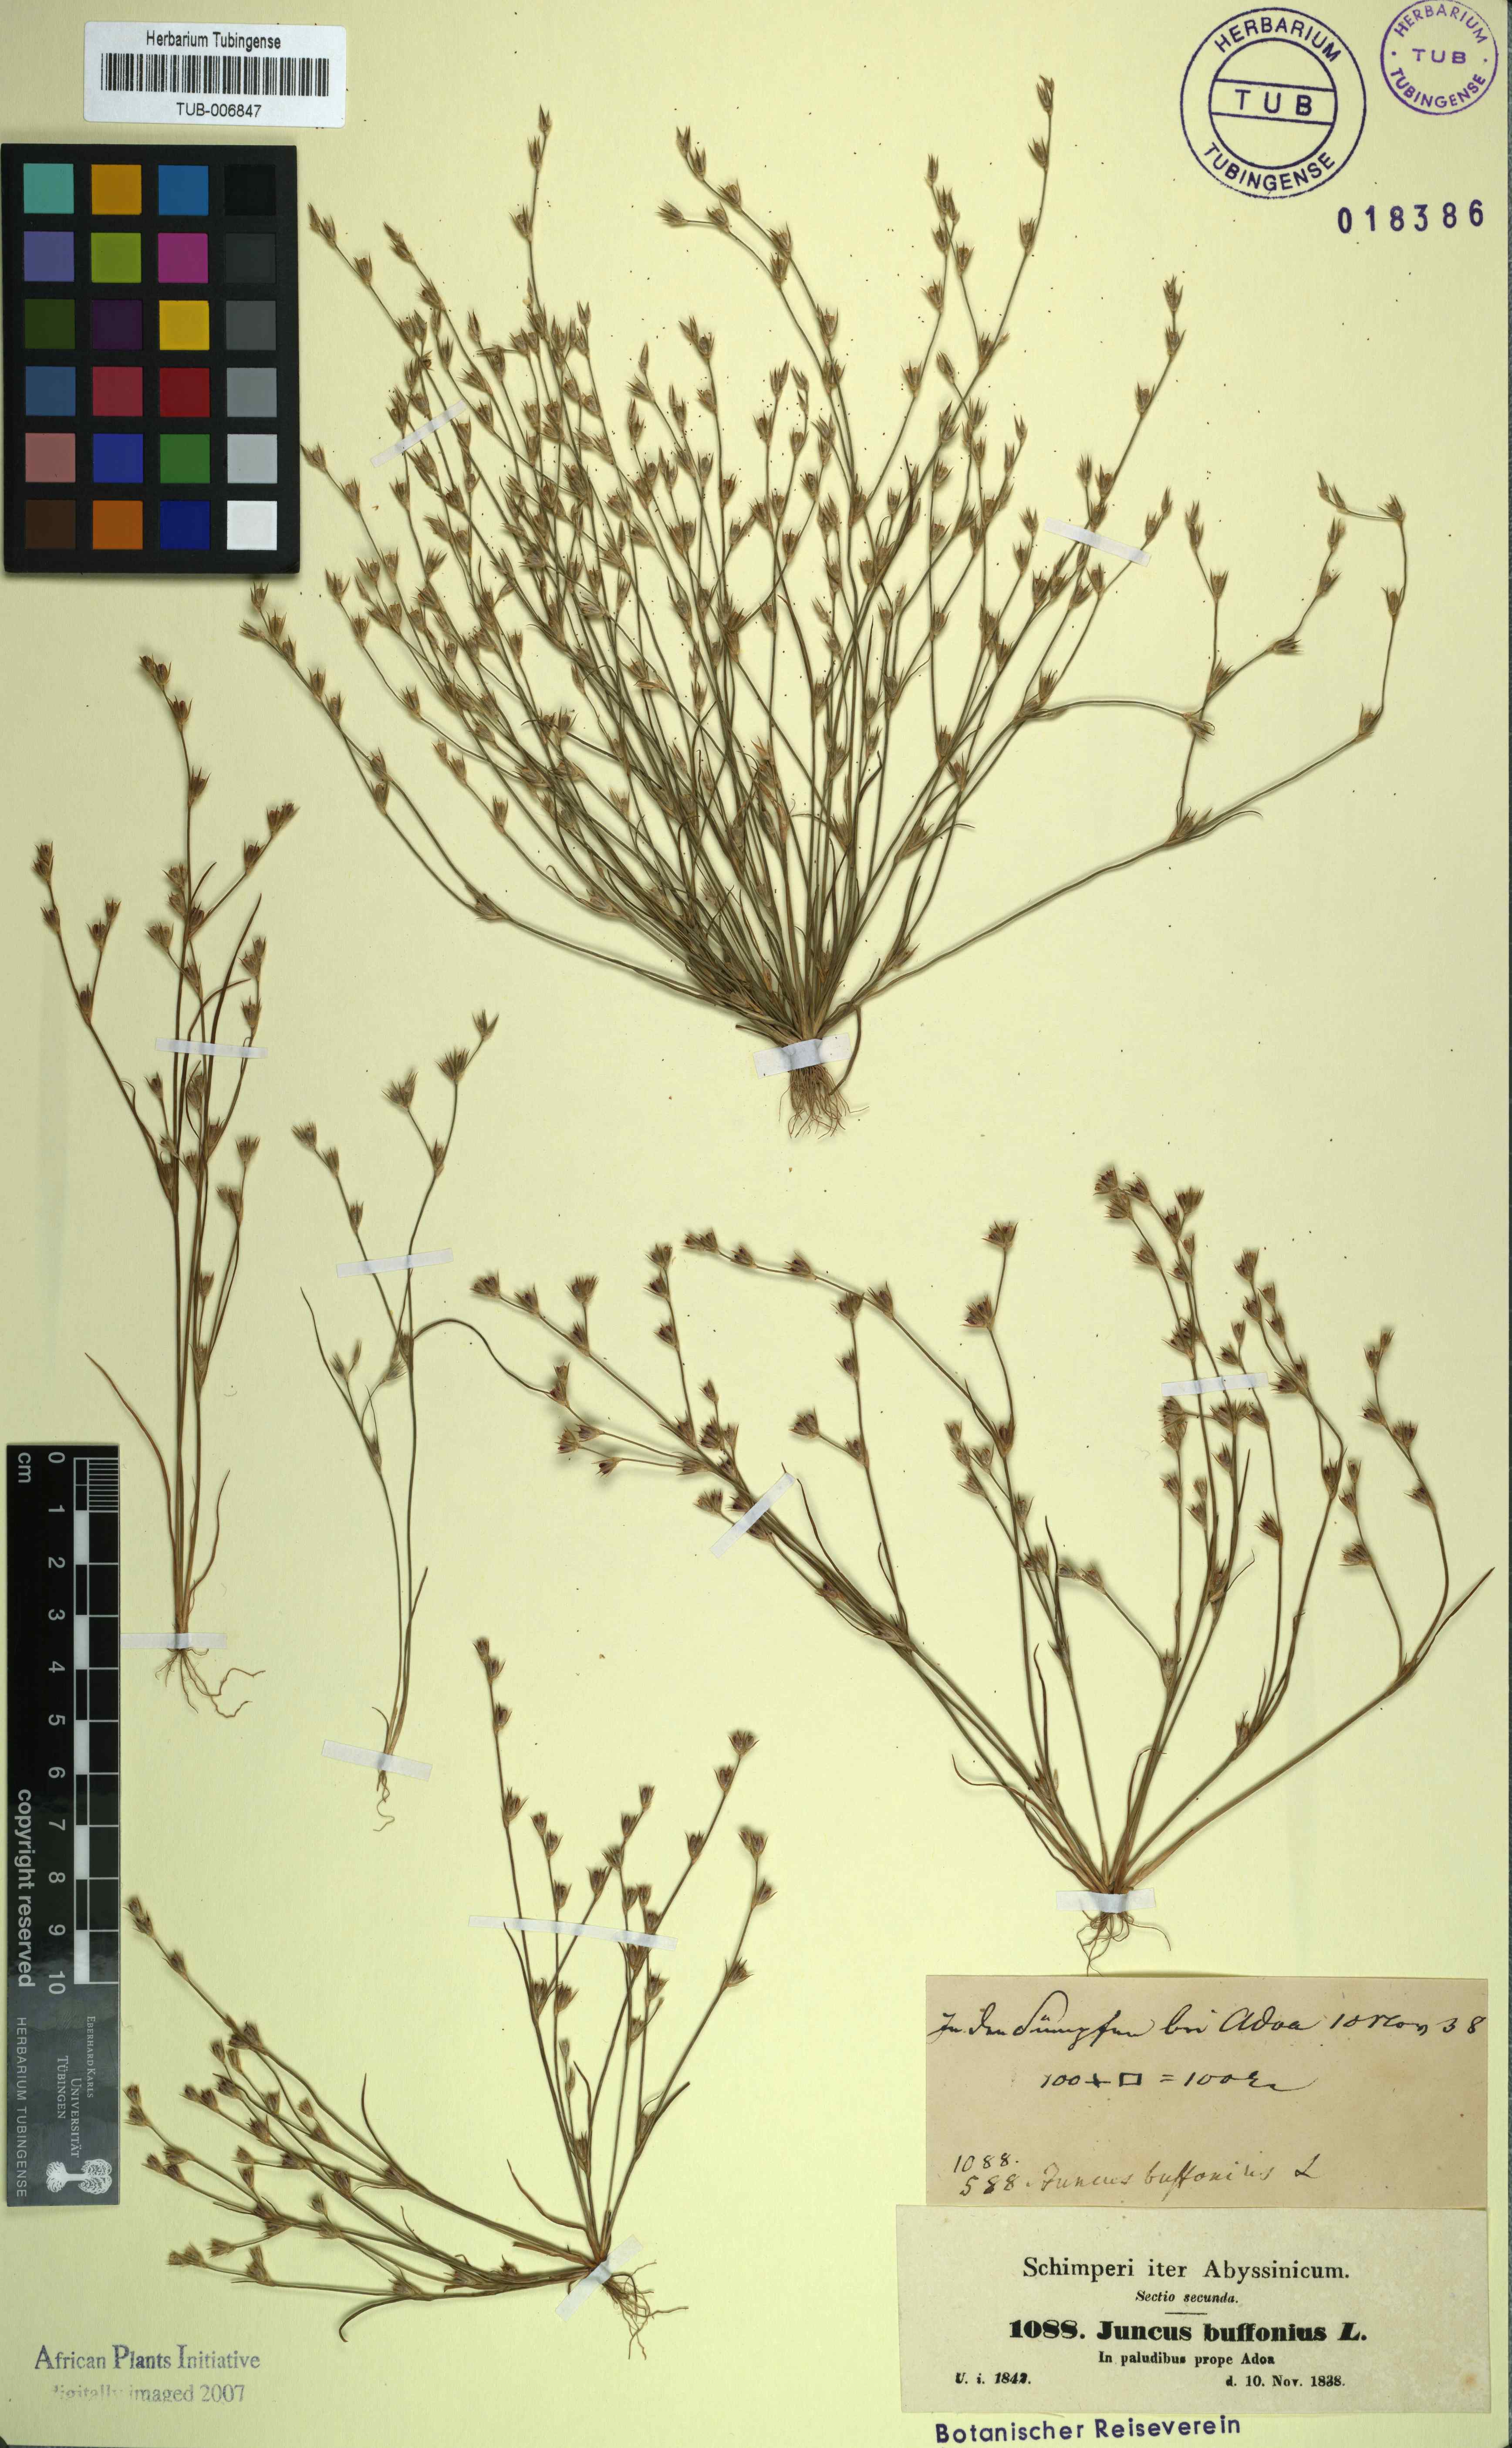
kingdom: Plantae
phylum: Tracheophyta
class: Liliopsida
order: Poales
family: Juncaceae
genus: Juncus
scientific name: Juncus bufonius
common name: Toad rush
